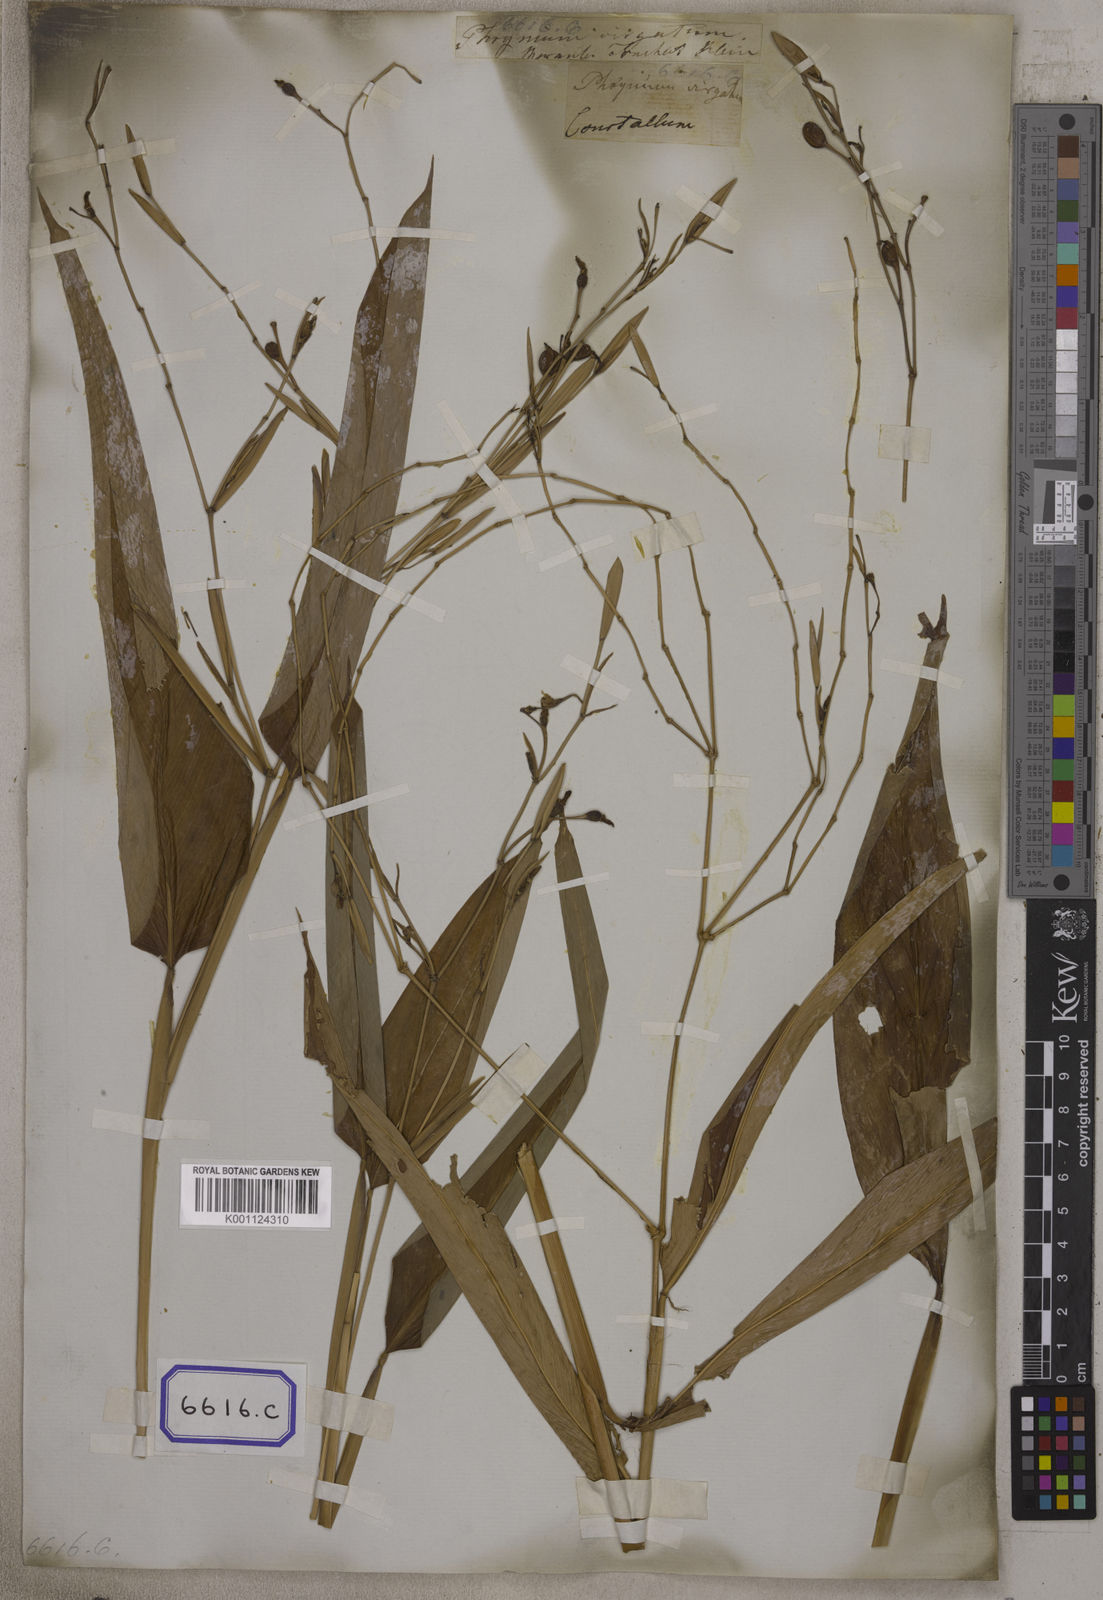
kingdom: Plantae
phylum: Tracheophyta
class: Liliopsida
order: Zingiberales
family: Marantaceae
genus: Maranta
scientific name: Maranta
